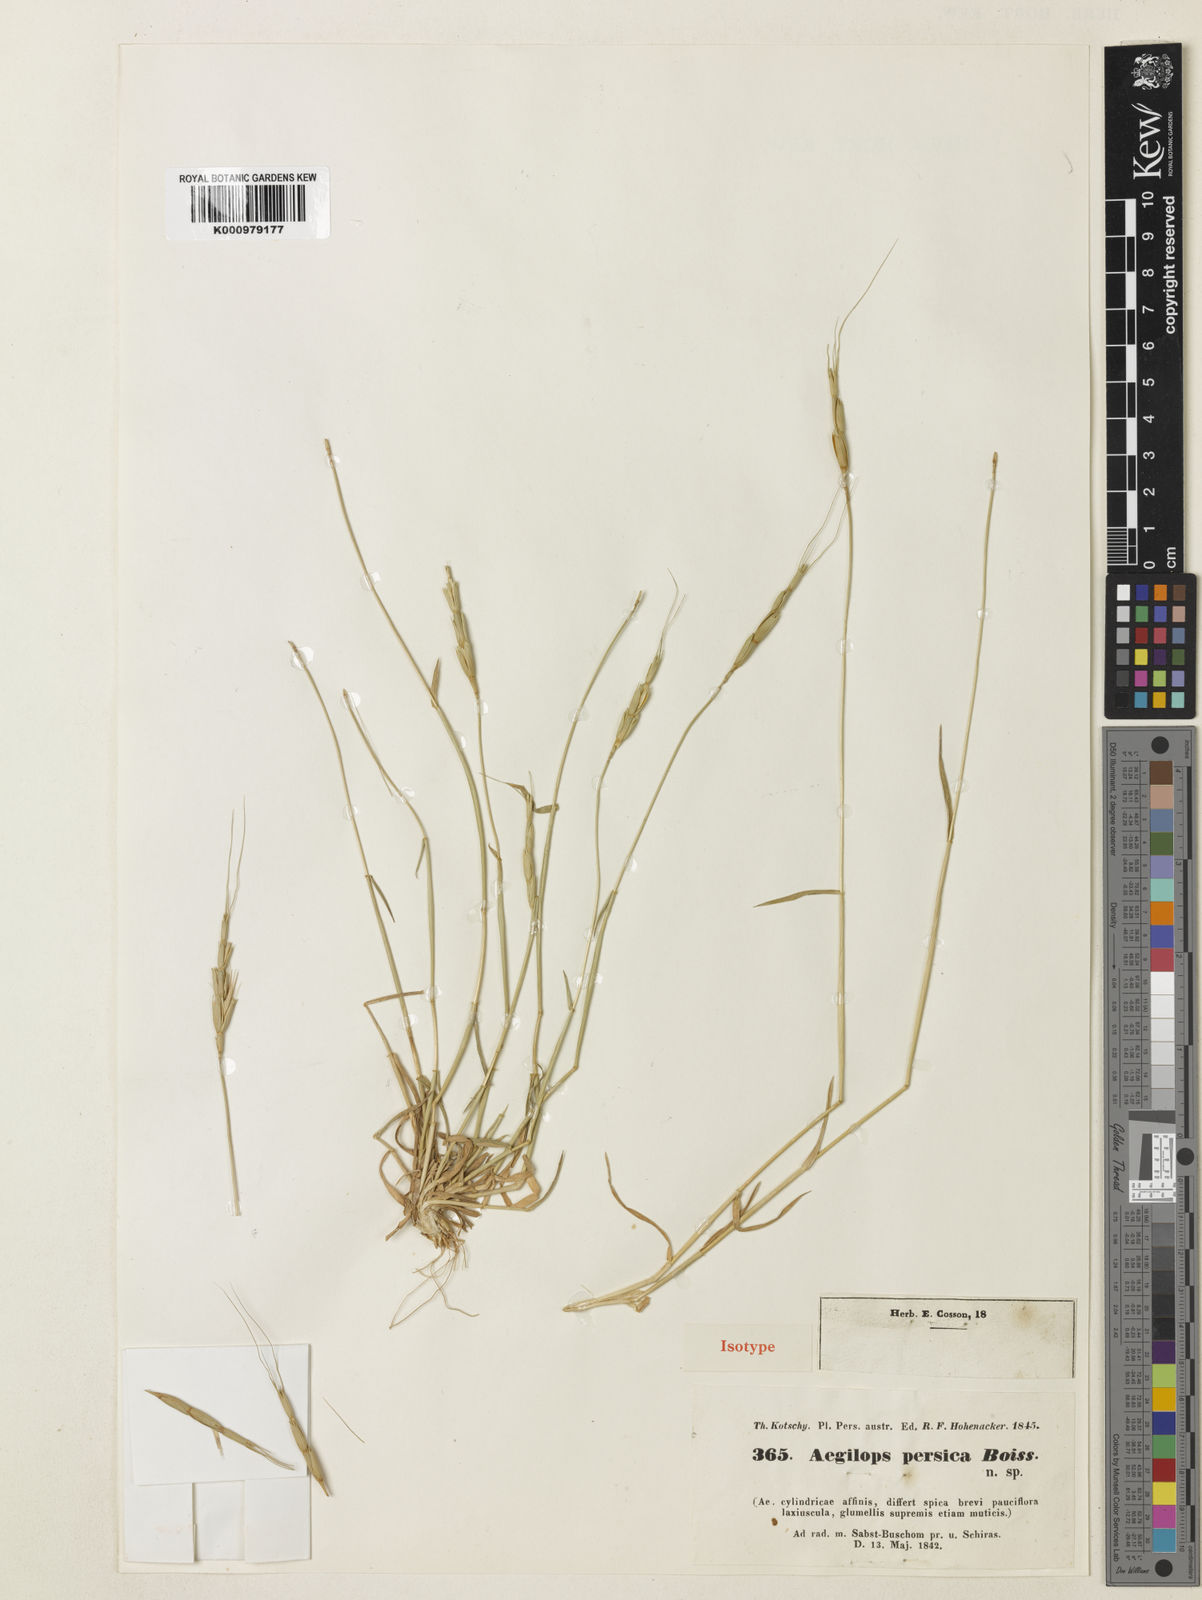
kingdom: Plantae
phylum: Tracheophyta
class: Liliopsida
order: Poales
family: Poaceae
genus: Aegilops
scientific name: Aegilops triuncialis
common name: Barb goat grass
